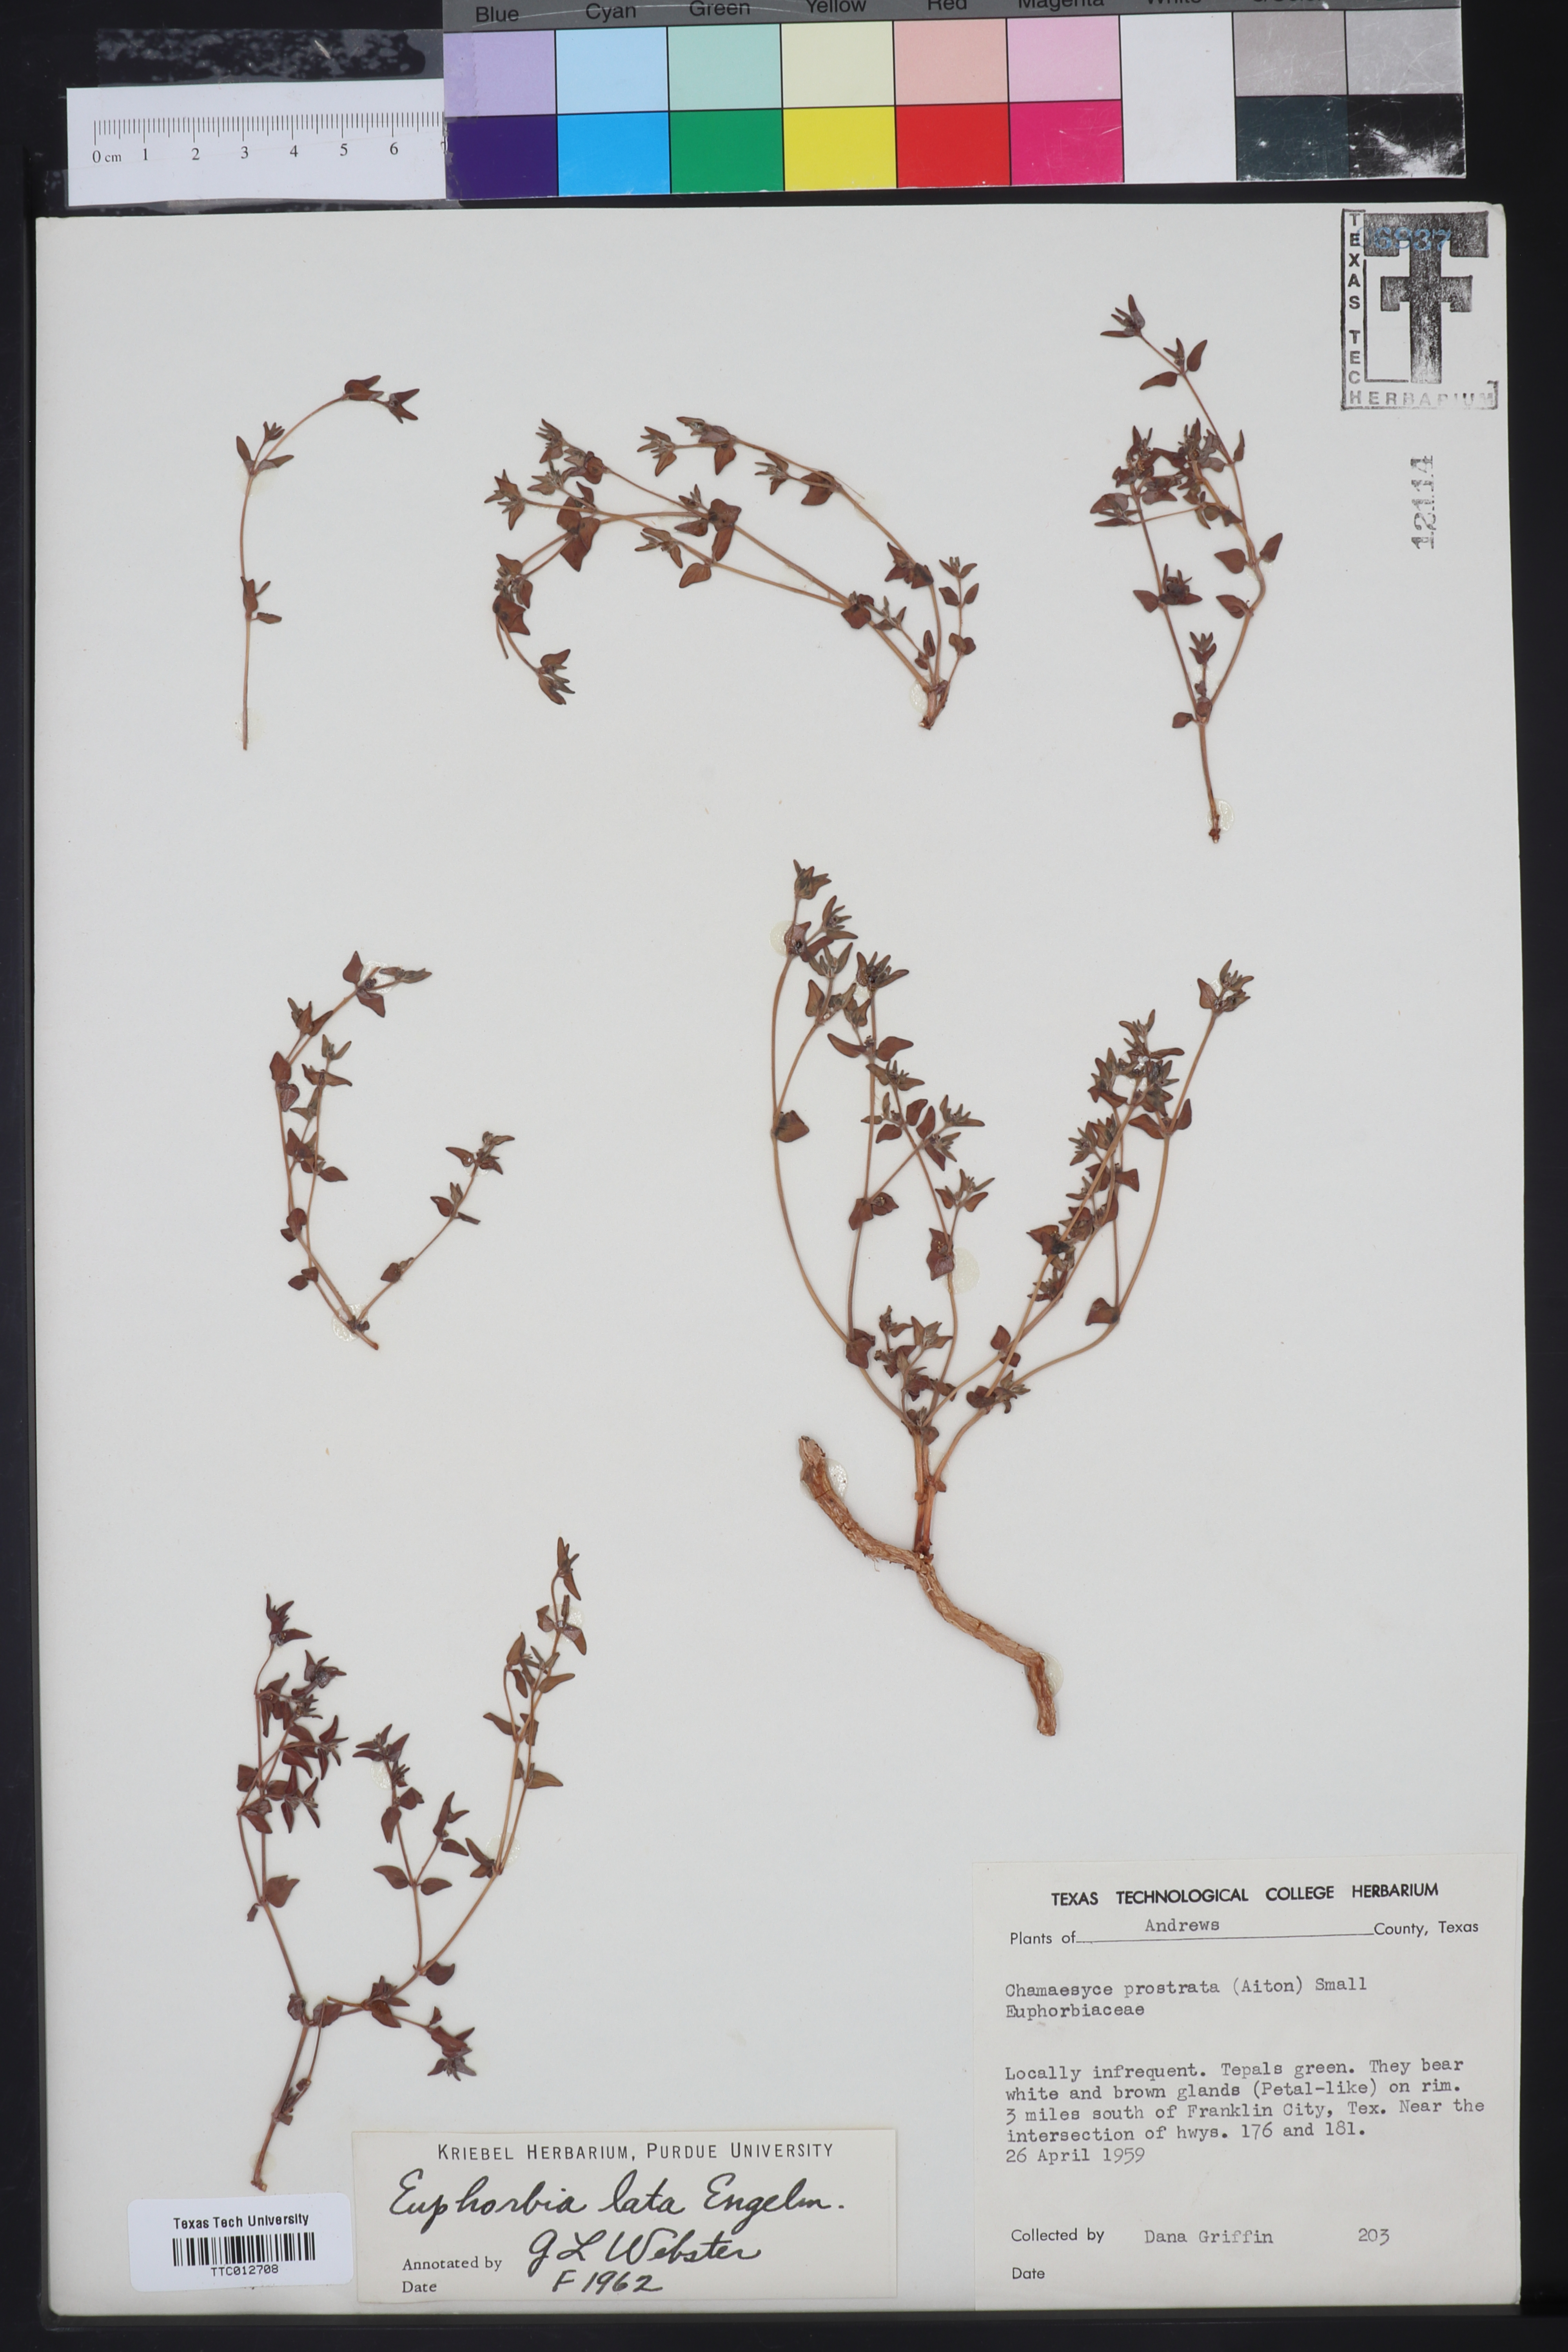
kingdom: Plantae
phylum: Tracheophyta
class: Magnoliopsida
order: Malpighiales
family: Euphorbiaceae
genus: Euphorbia
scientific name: Euphorbia lata
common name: Hoary euphorbia
